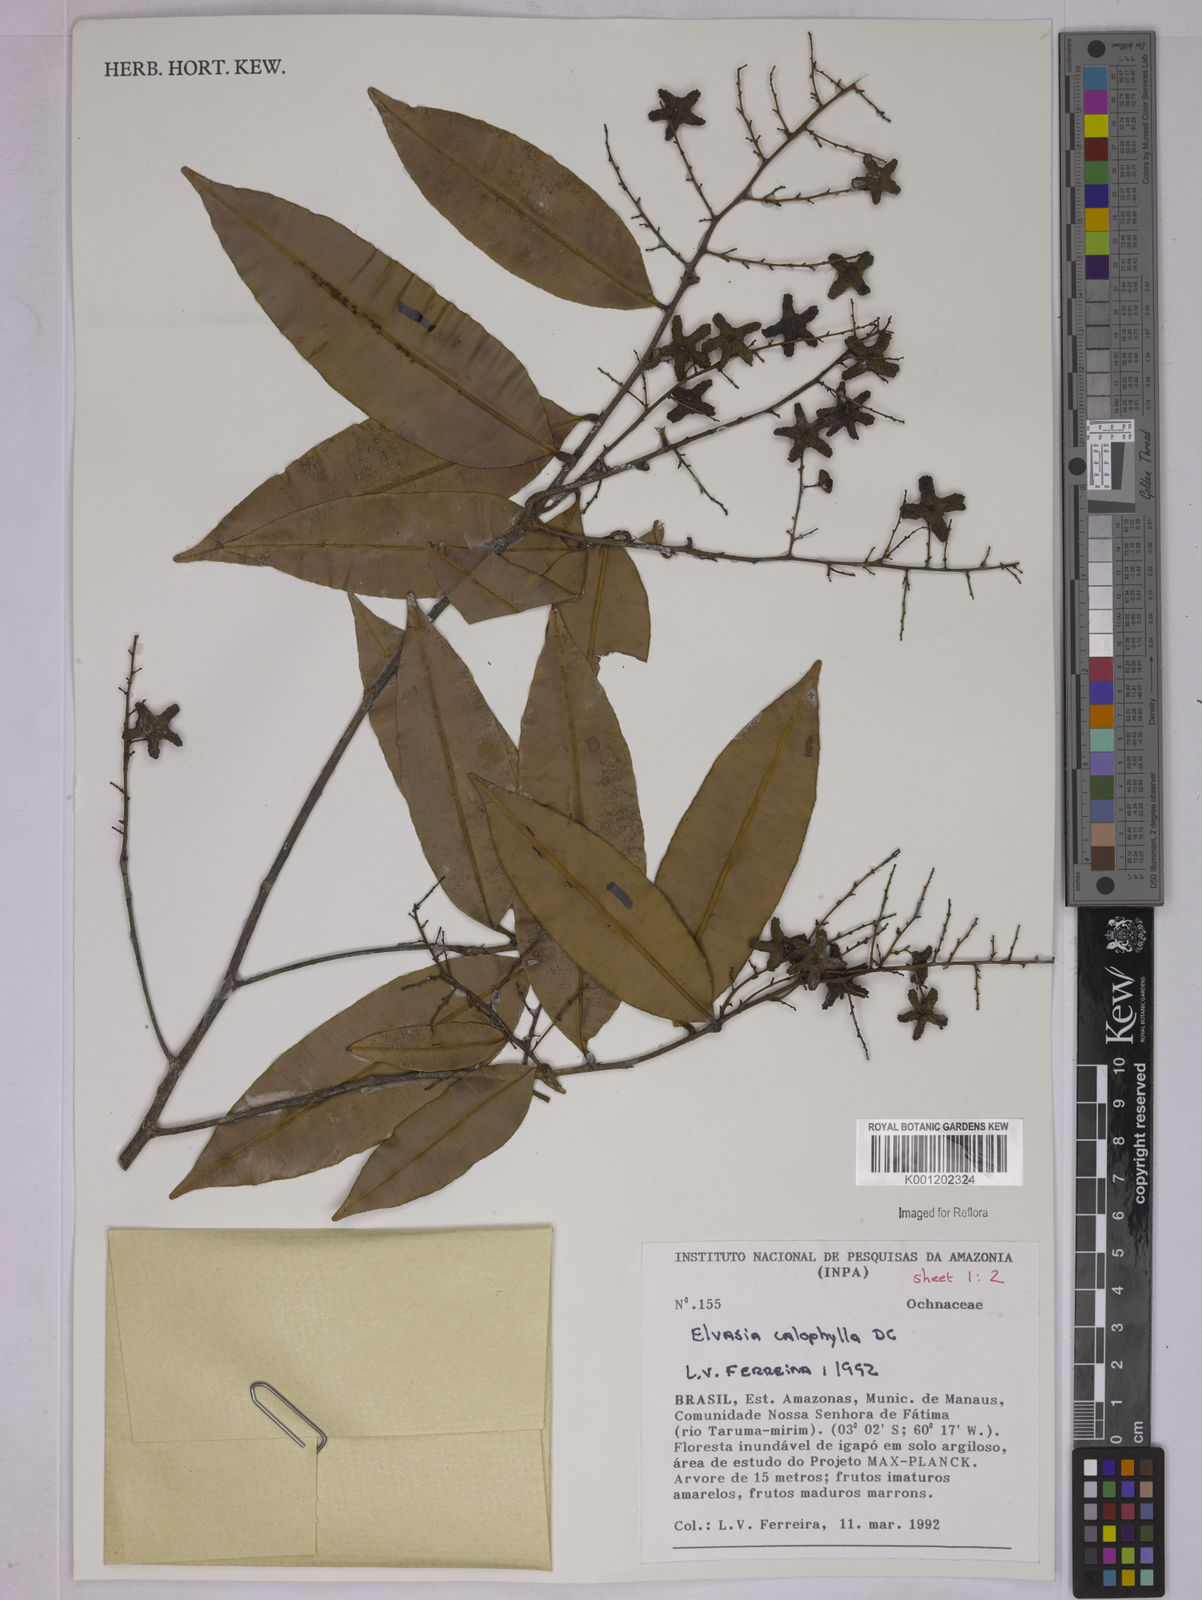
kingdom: Plantae
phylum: Tracheophyta
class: Magnoliopsida
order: Malpighiales
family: Ochnaceae
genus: Elvasia
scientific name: Elvasia calophyllea
